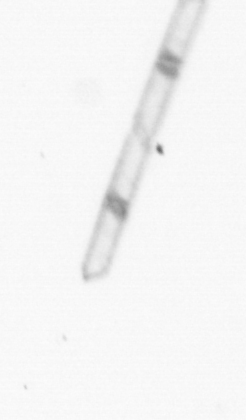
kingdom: Chromista
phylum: Ochrophyta
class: Bacillariophyceae
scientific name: Bacillariophyceae
